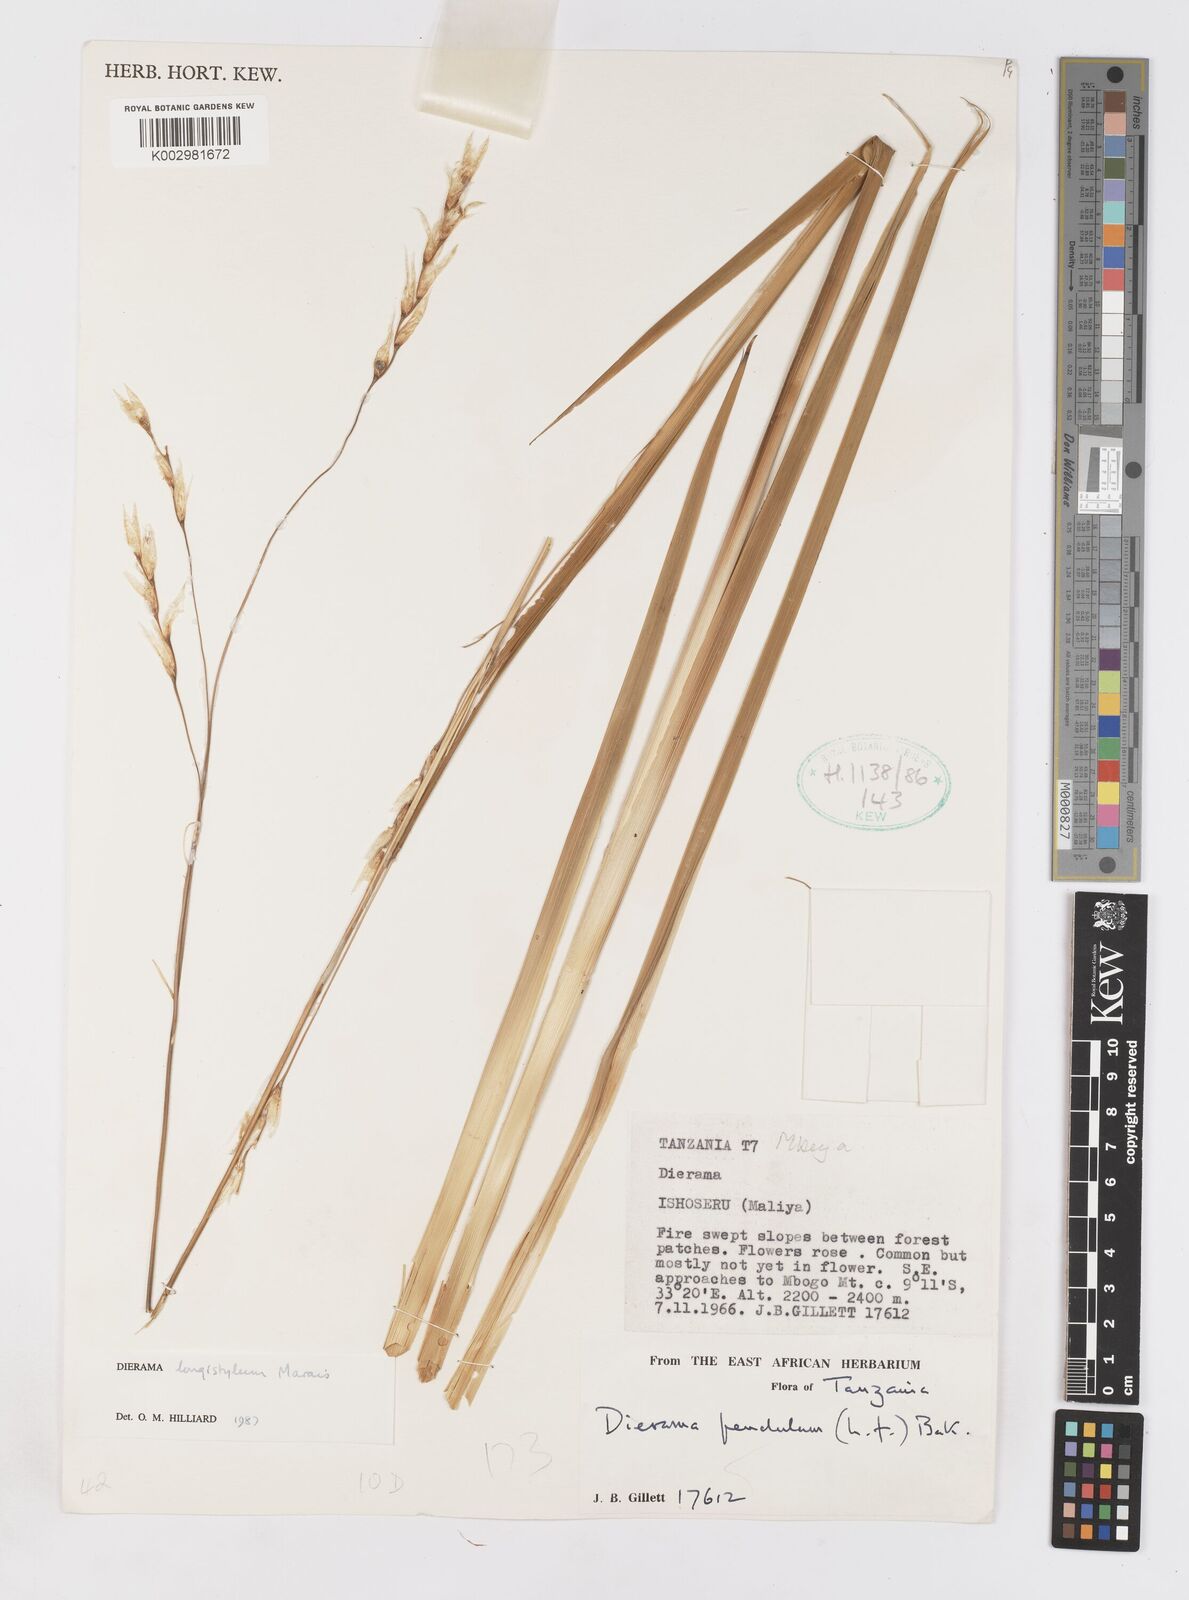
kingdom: Plantae
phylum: Tracheophyta
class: Liliopsida
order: Asparagales
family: Iridaceae
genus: Dierama
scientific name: Dierama longistylum
